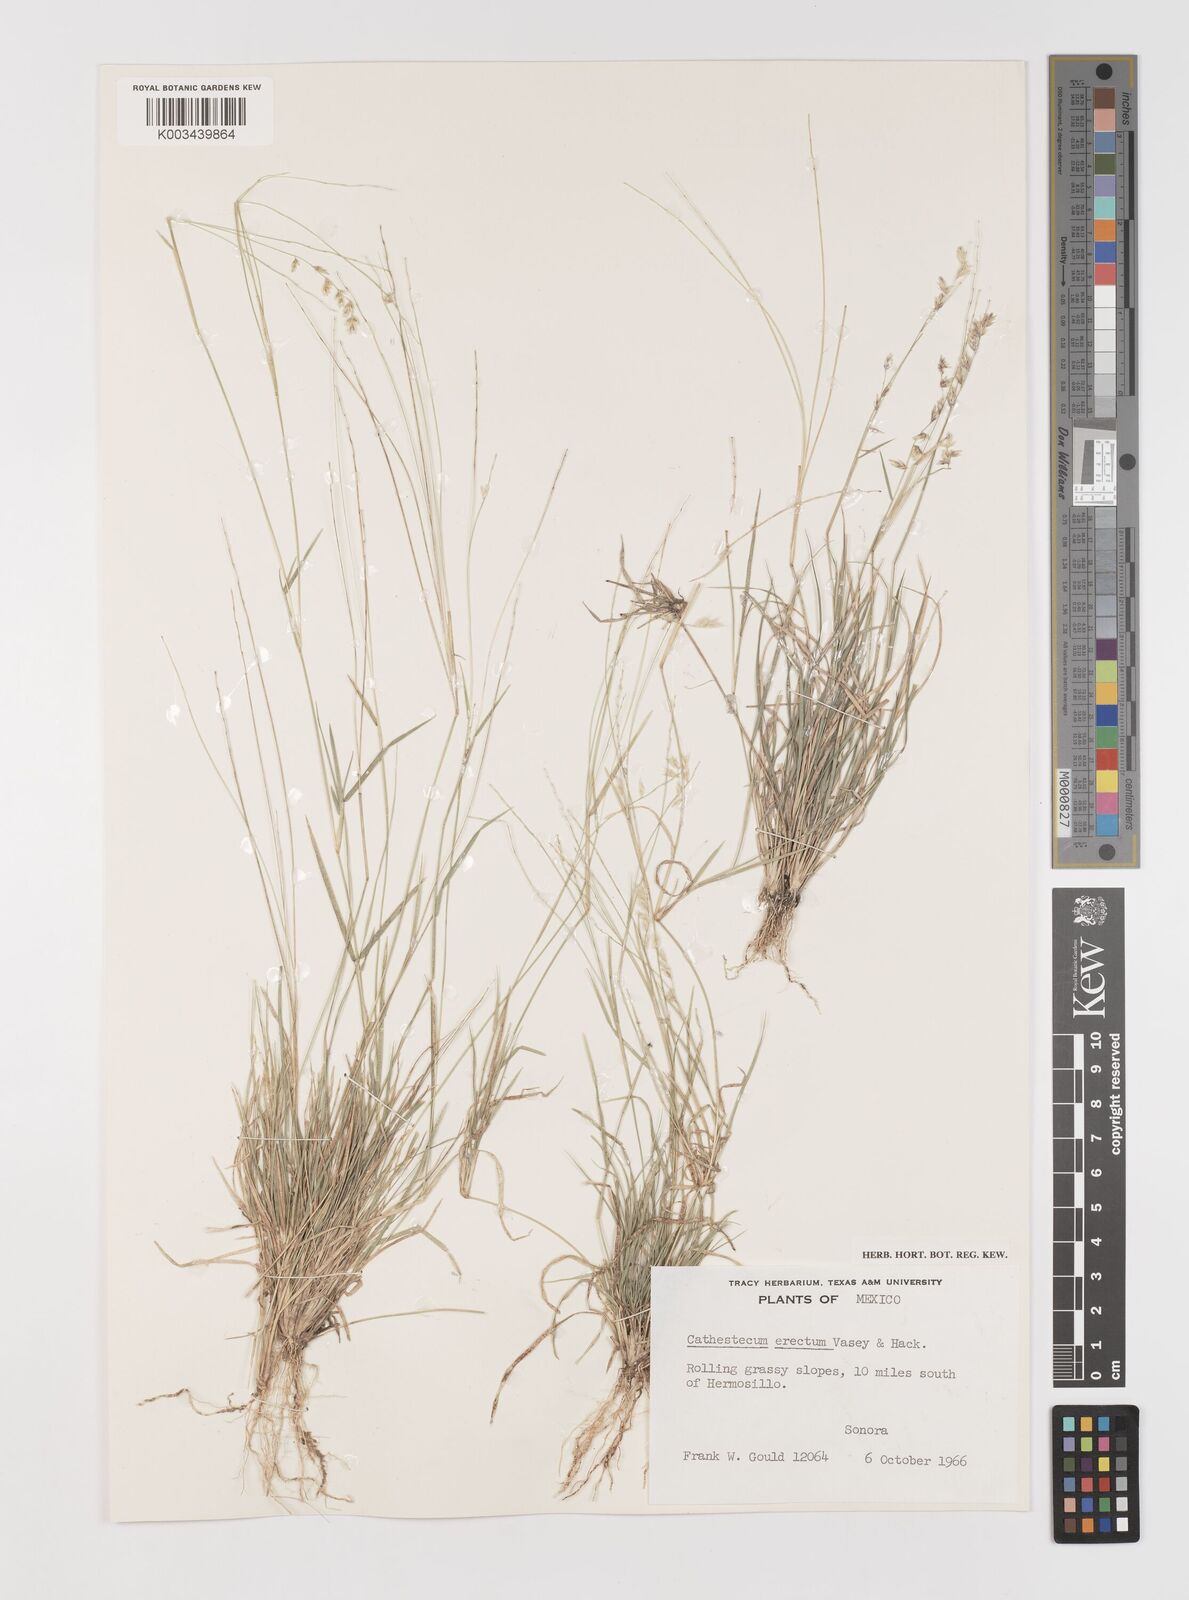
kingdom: Plantae
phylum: Tracheophyta
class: Liliopsida
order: Poales
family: Poaceae
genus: Bouteloua
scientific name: Bouteloua erecta
